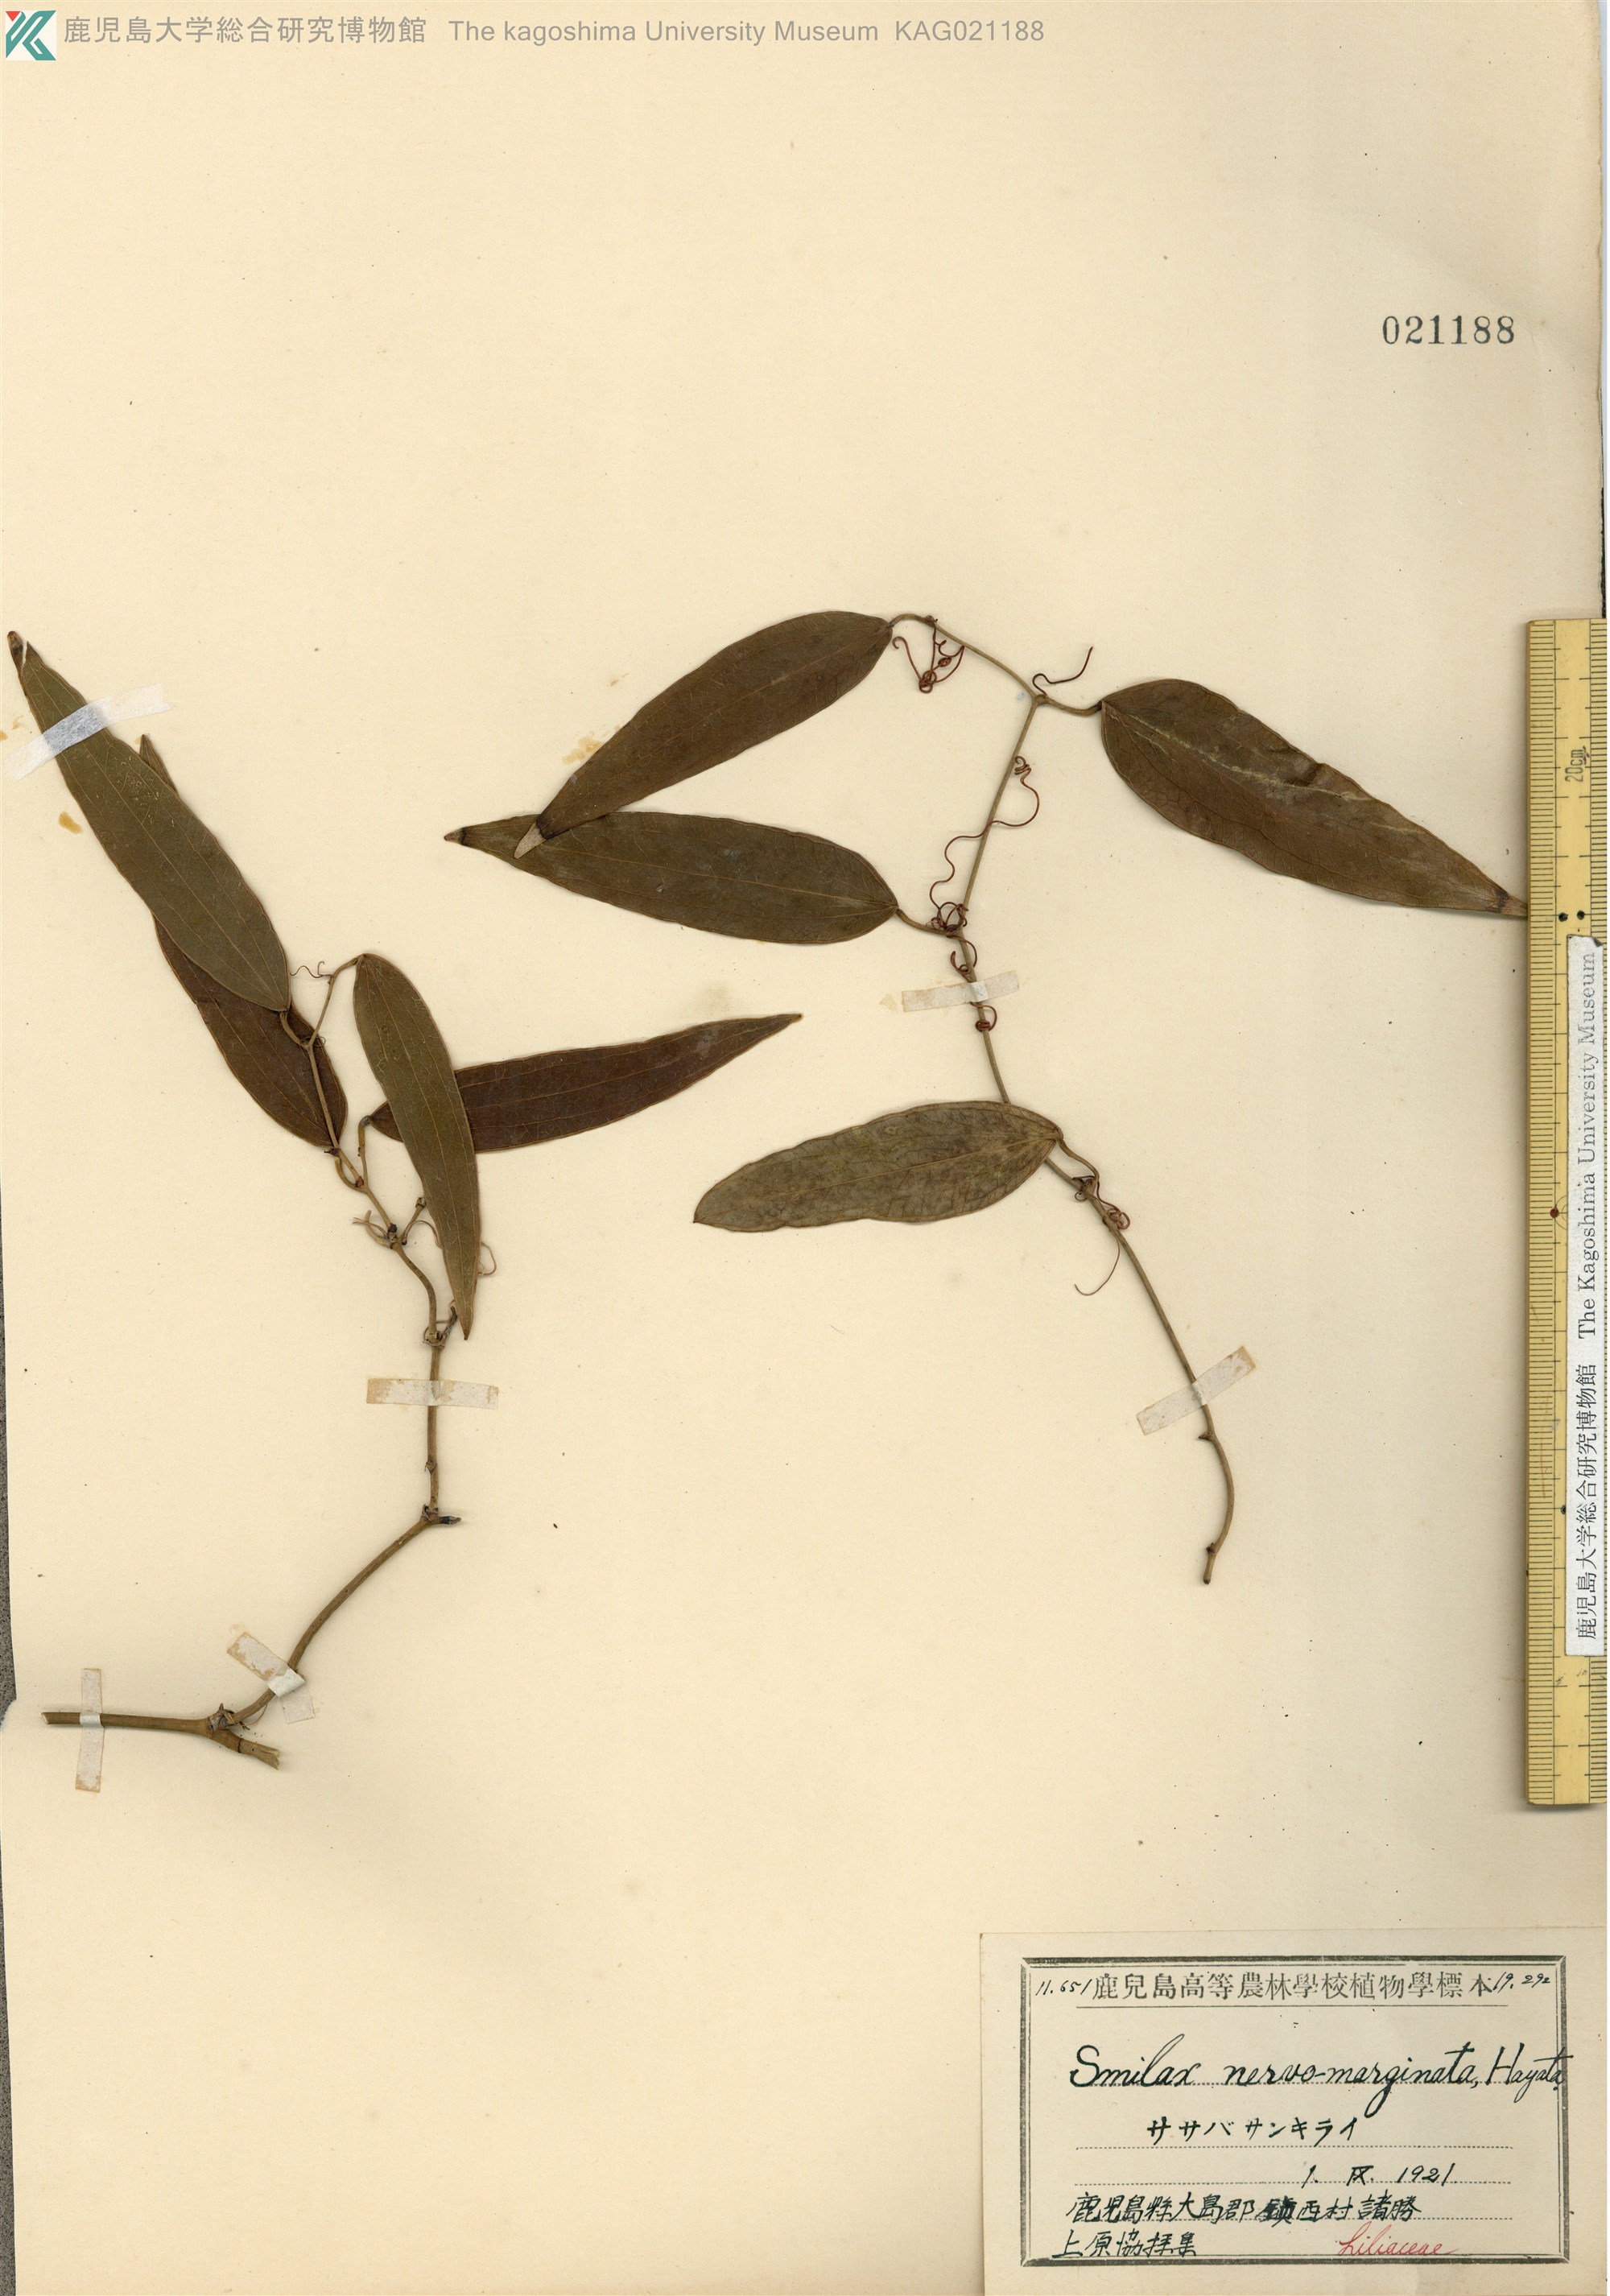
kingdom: Plantae
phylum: Tracheophyta
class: Liliopsida
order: Liliales
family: Smilacaceae
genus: Smilax
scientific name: Smilax nervomarginata
